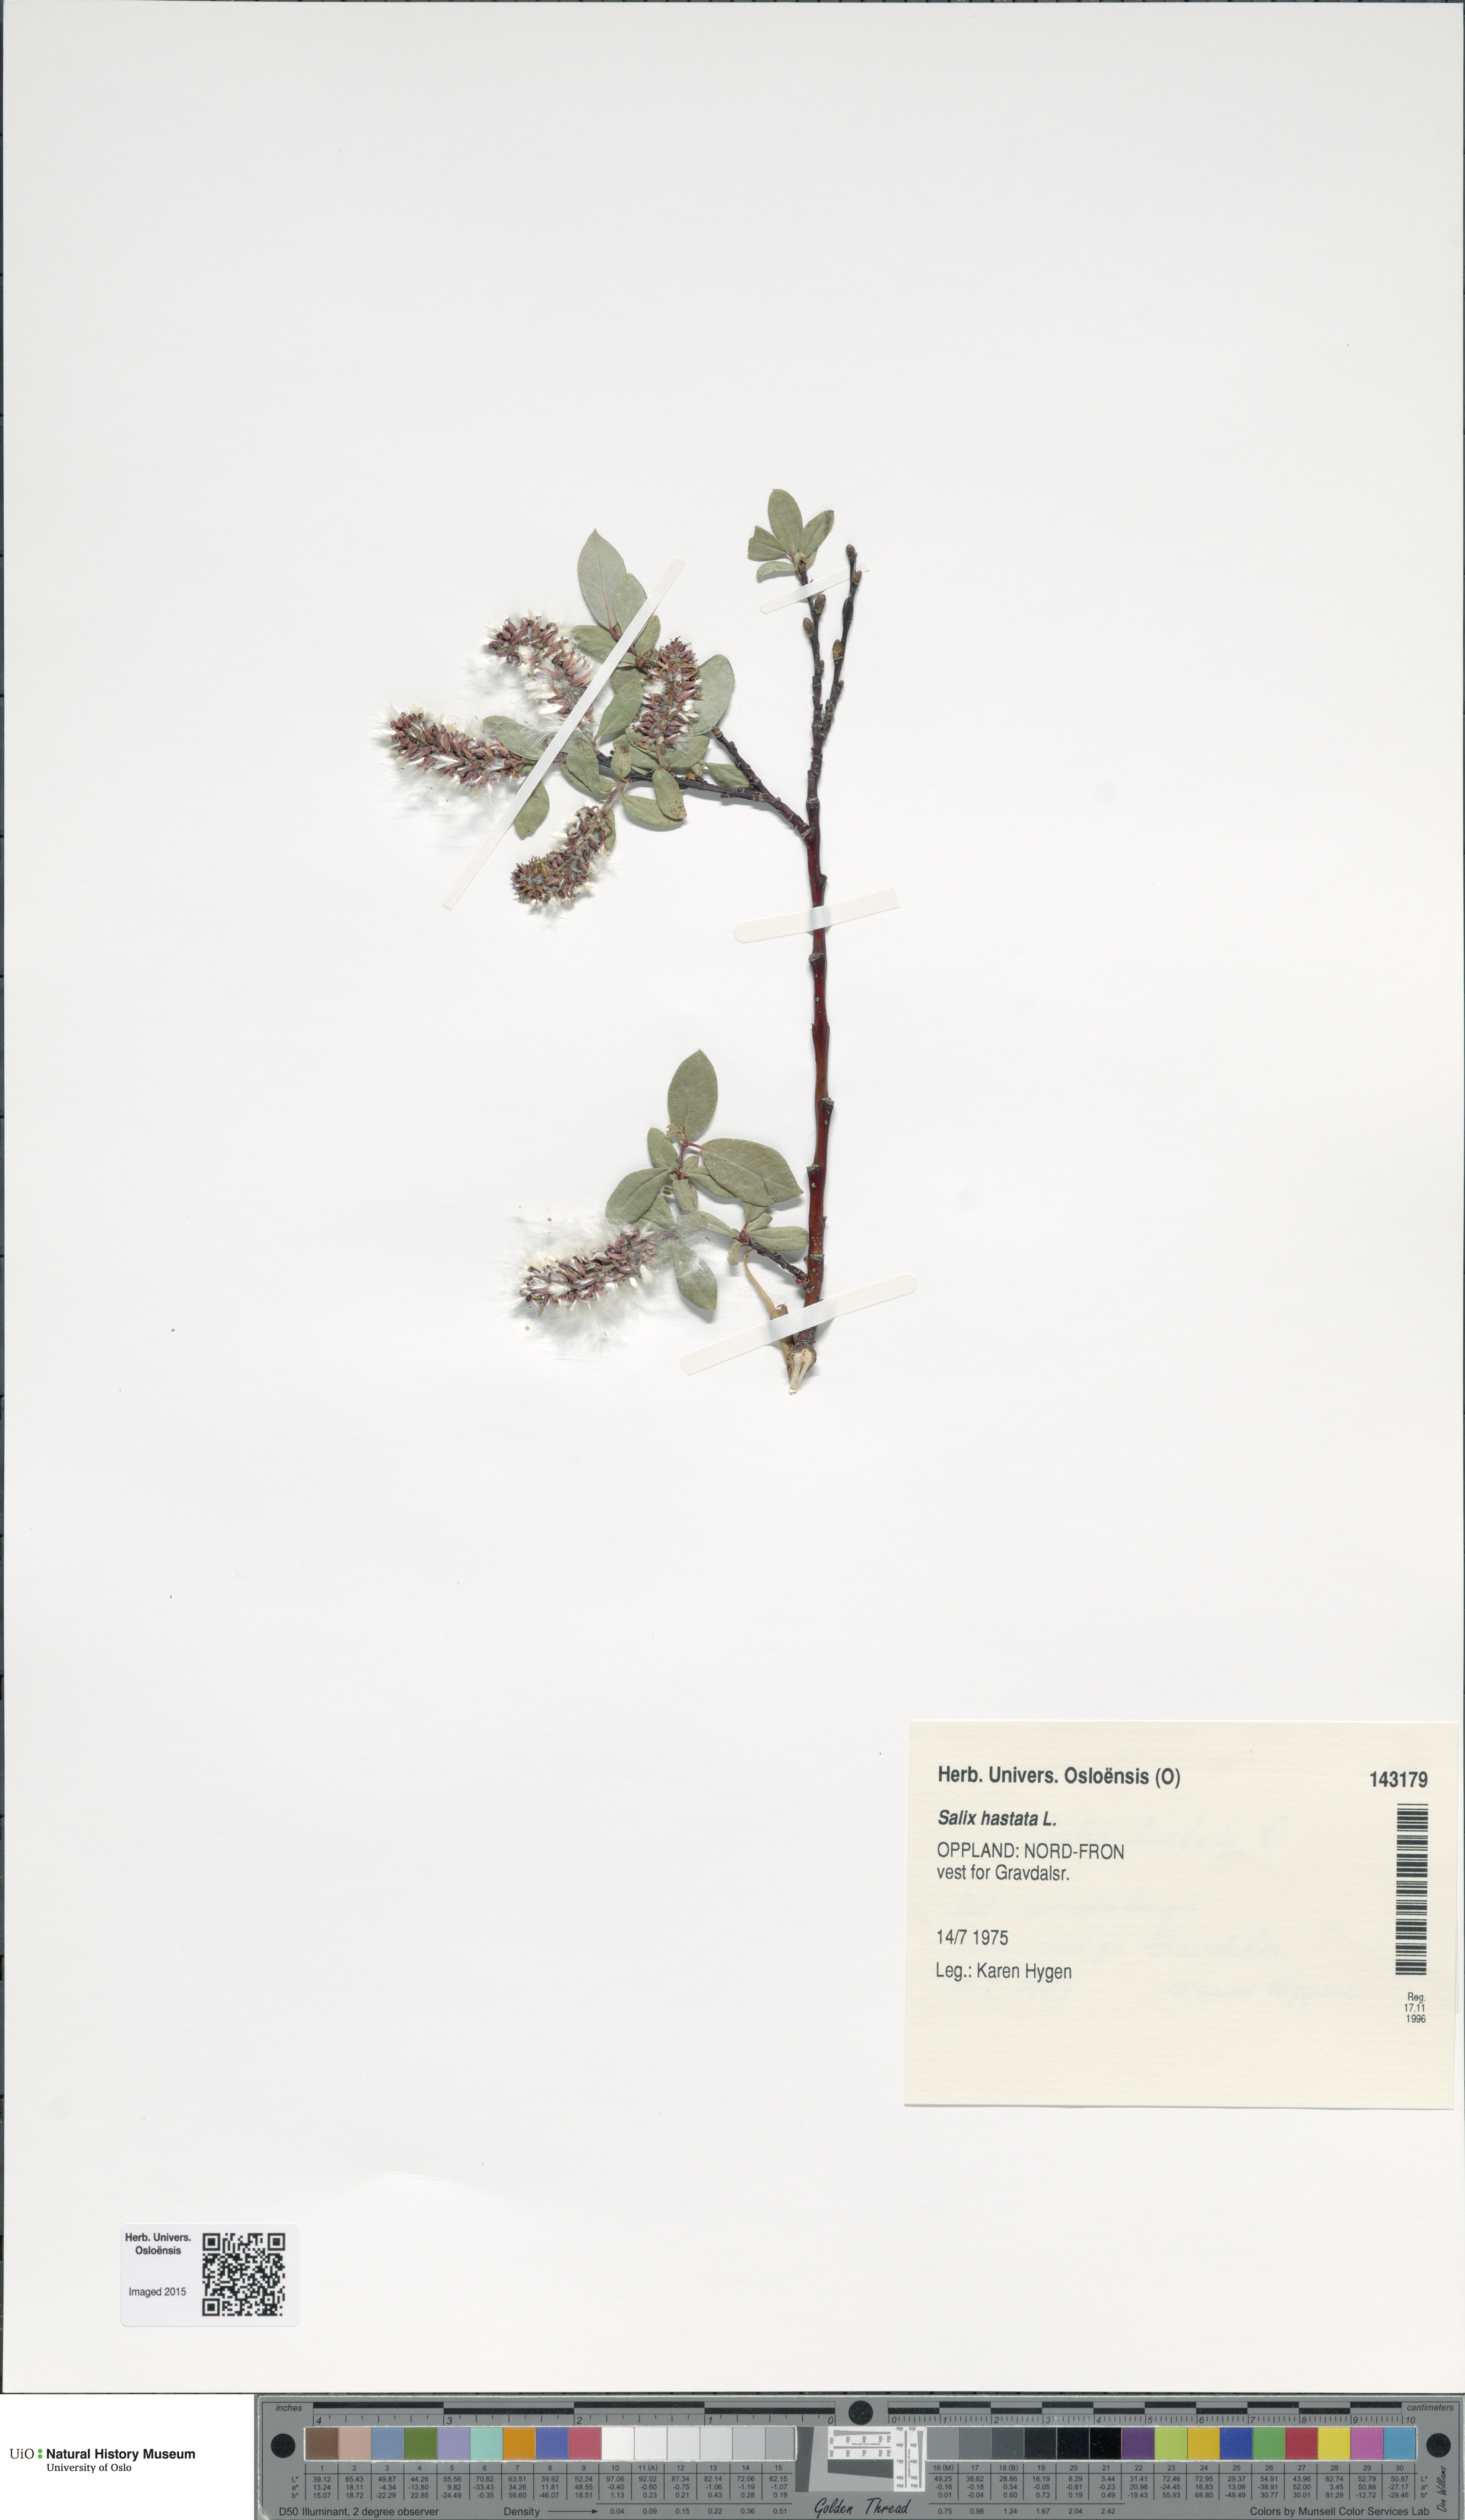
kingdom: Plantae
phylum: Tracheophyta
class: Magnoliopsida
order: Malpighiales
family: Salicaceae
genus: Salix
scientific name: Salix hastata
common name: Halberd willow
